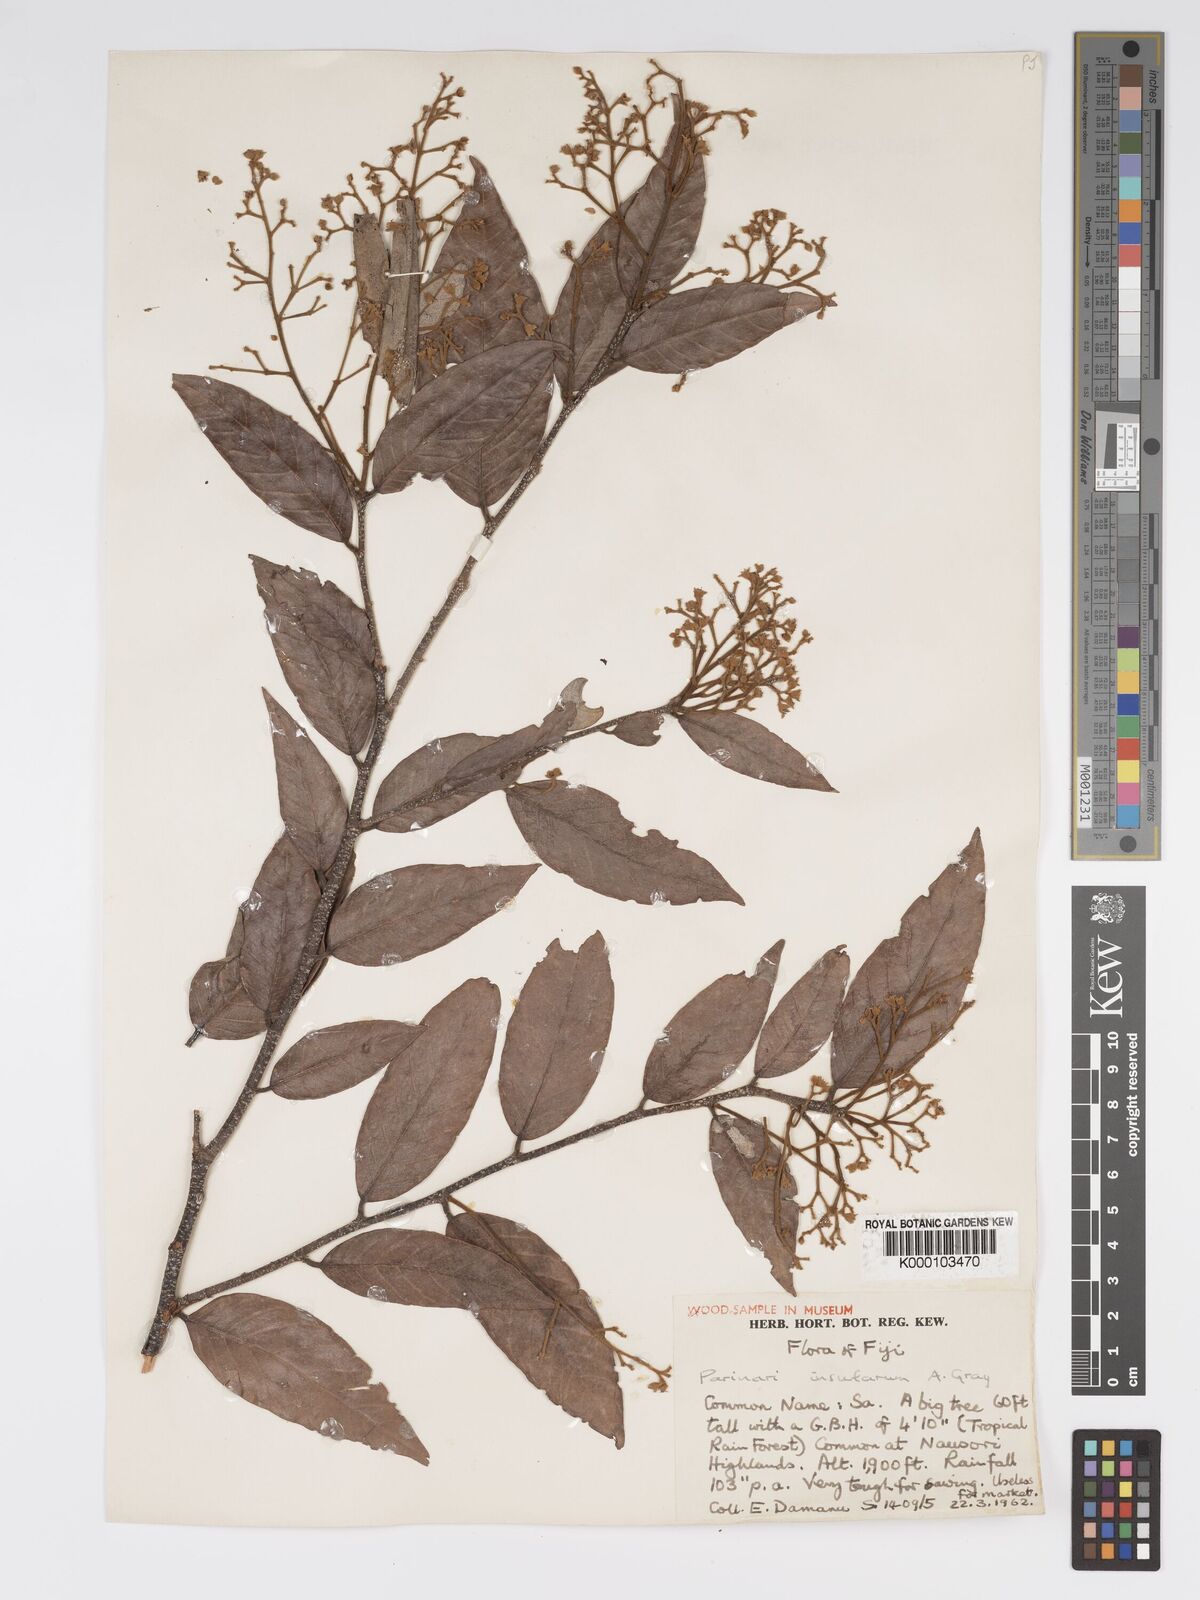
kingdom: Plantae
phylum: Tracheophyta
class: Magnoliopsida
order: Malpighiales
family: Chrysobalanaceae
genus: Parinari
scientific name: Parinari insularum
